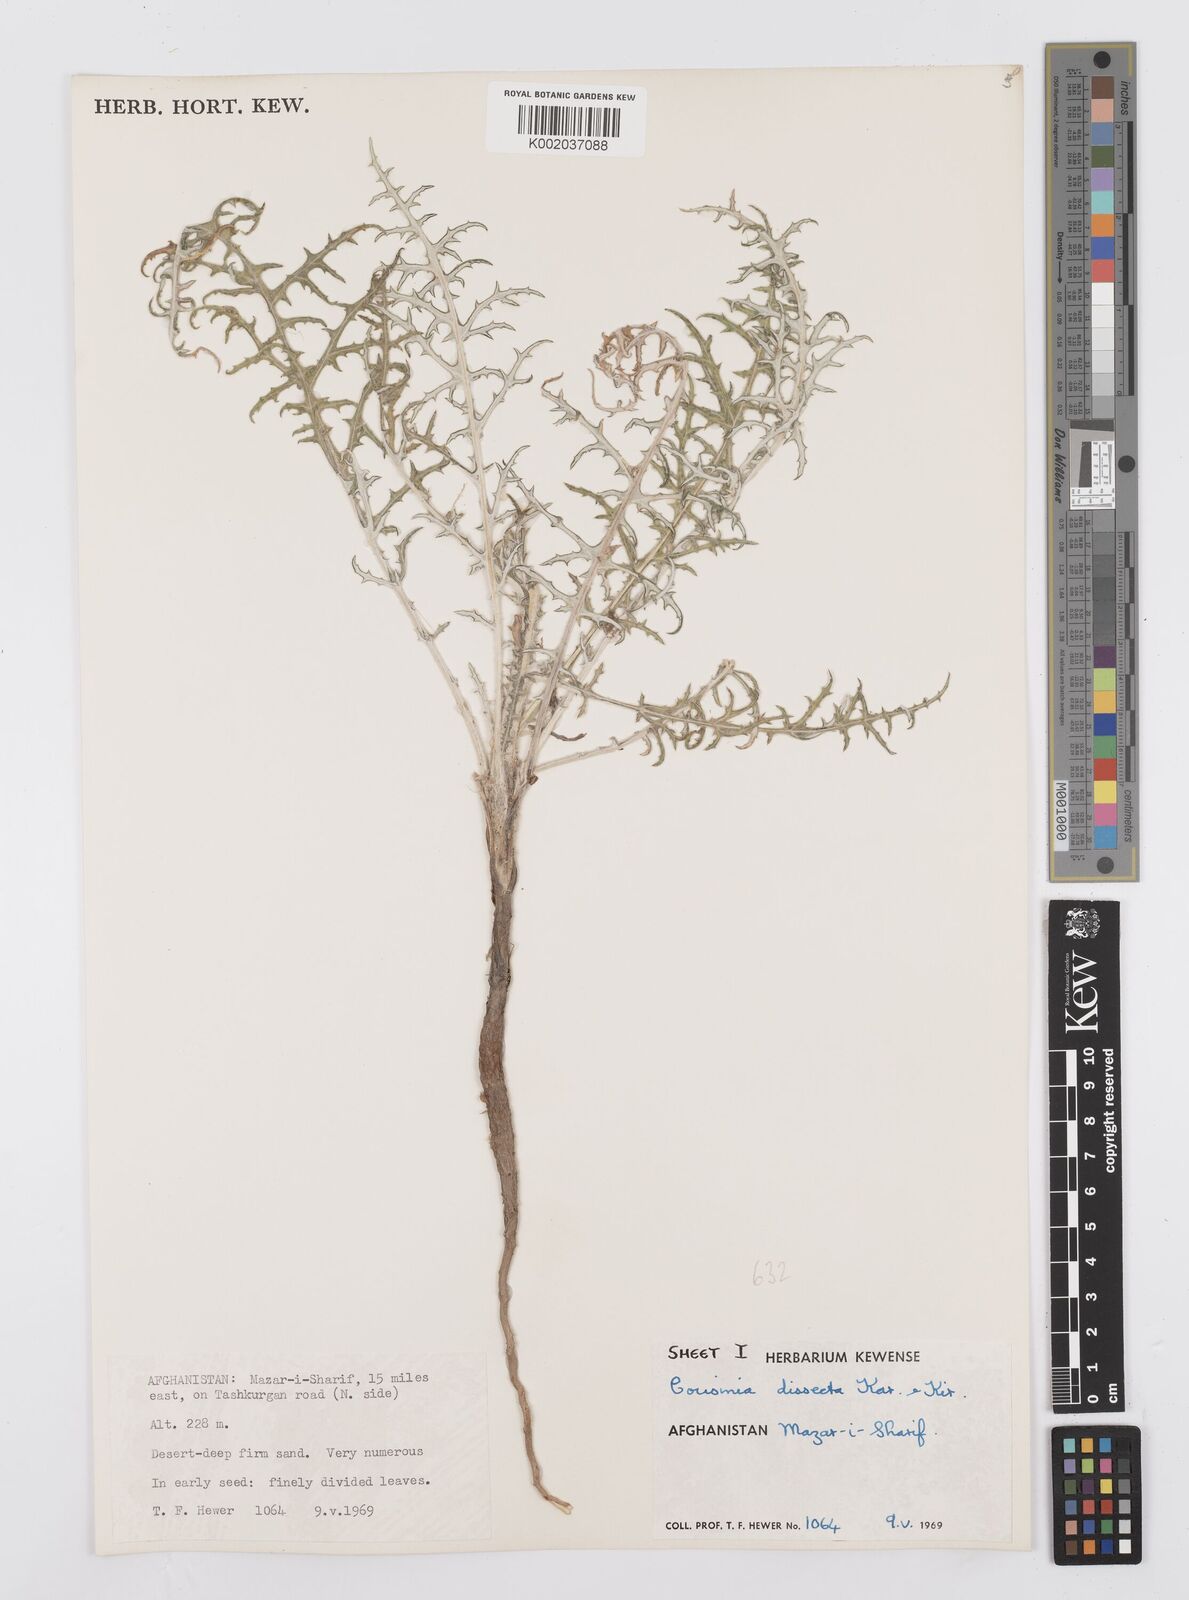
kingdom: Plantae
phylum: Tracheophyta
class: Magnoliopsida
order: Asterales
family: Asteraceae
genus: Cousinia
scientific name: Cousinia turkmenorum
